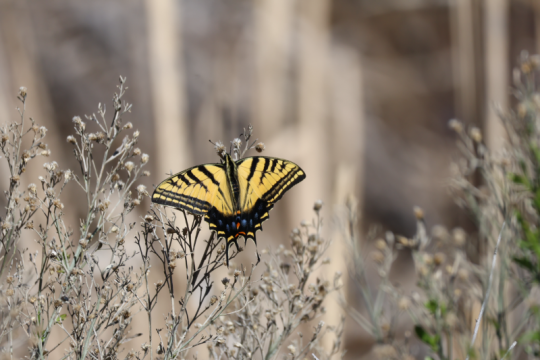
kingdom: Animalia
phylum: Arthropoda
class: Insecta
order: Lepidoptera
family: Papilionidae
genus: Papilio
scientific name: Papilio multicaudata
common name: Two-tailed Swallowtail
